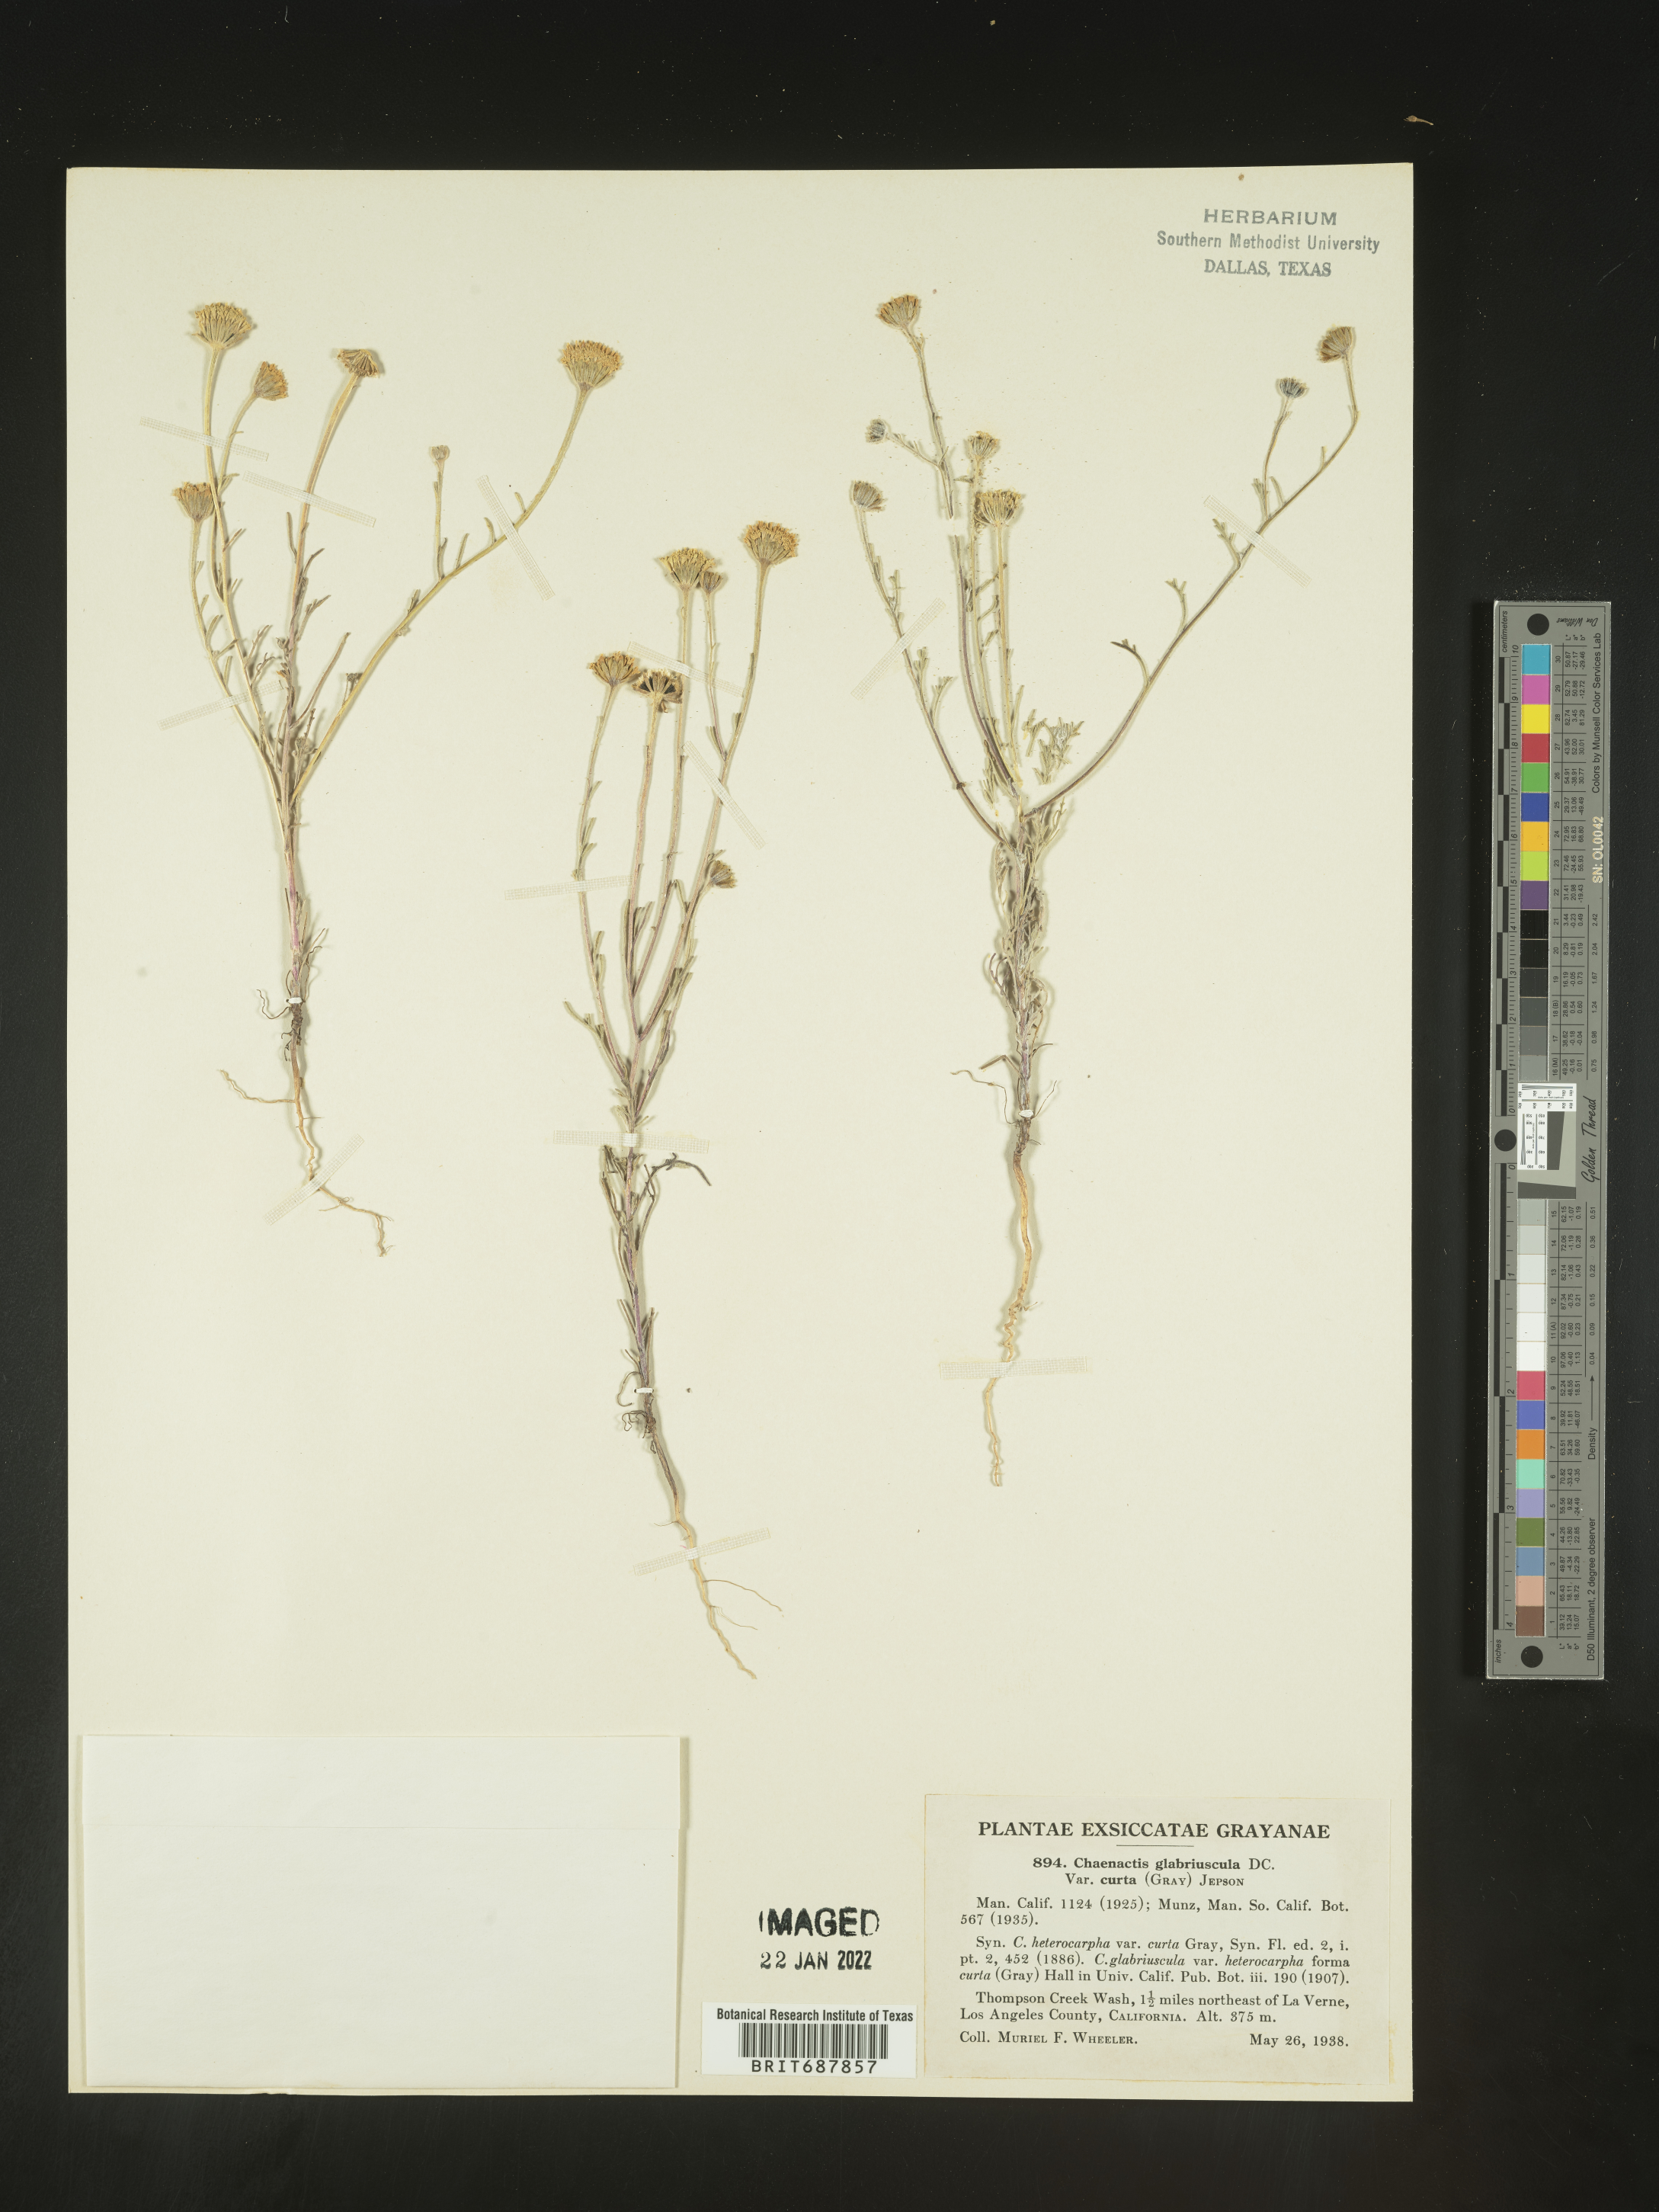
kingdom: Plantae
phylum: Tracheophyta
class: Magnoliopsida
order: Asterales
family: Asteraceae
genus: Chaenactis
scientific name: Chaenactis glabriuscula
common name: Yellow pincushion
